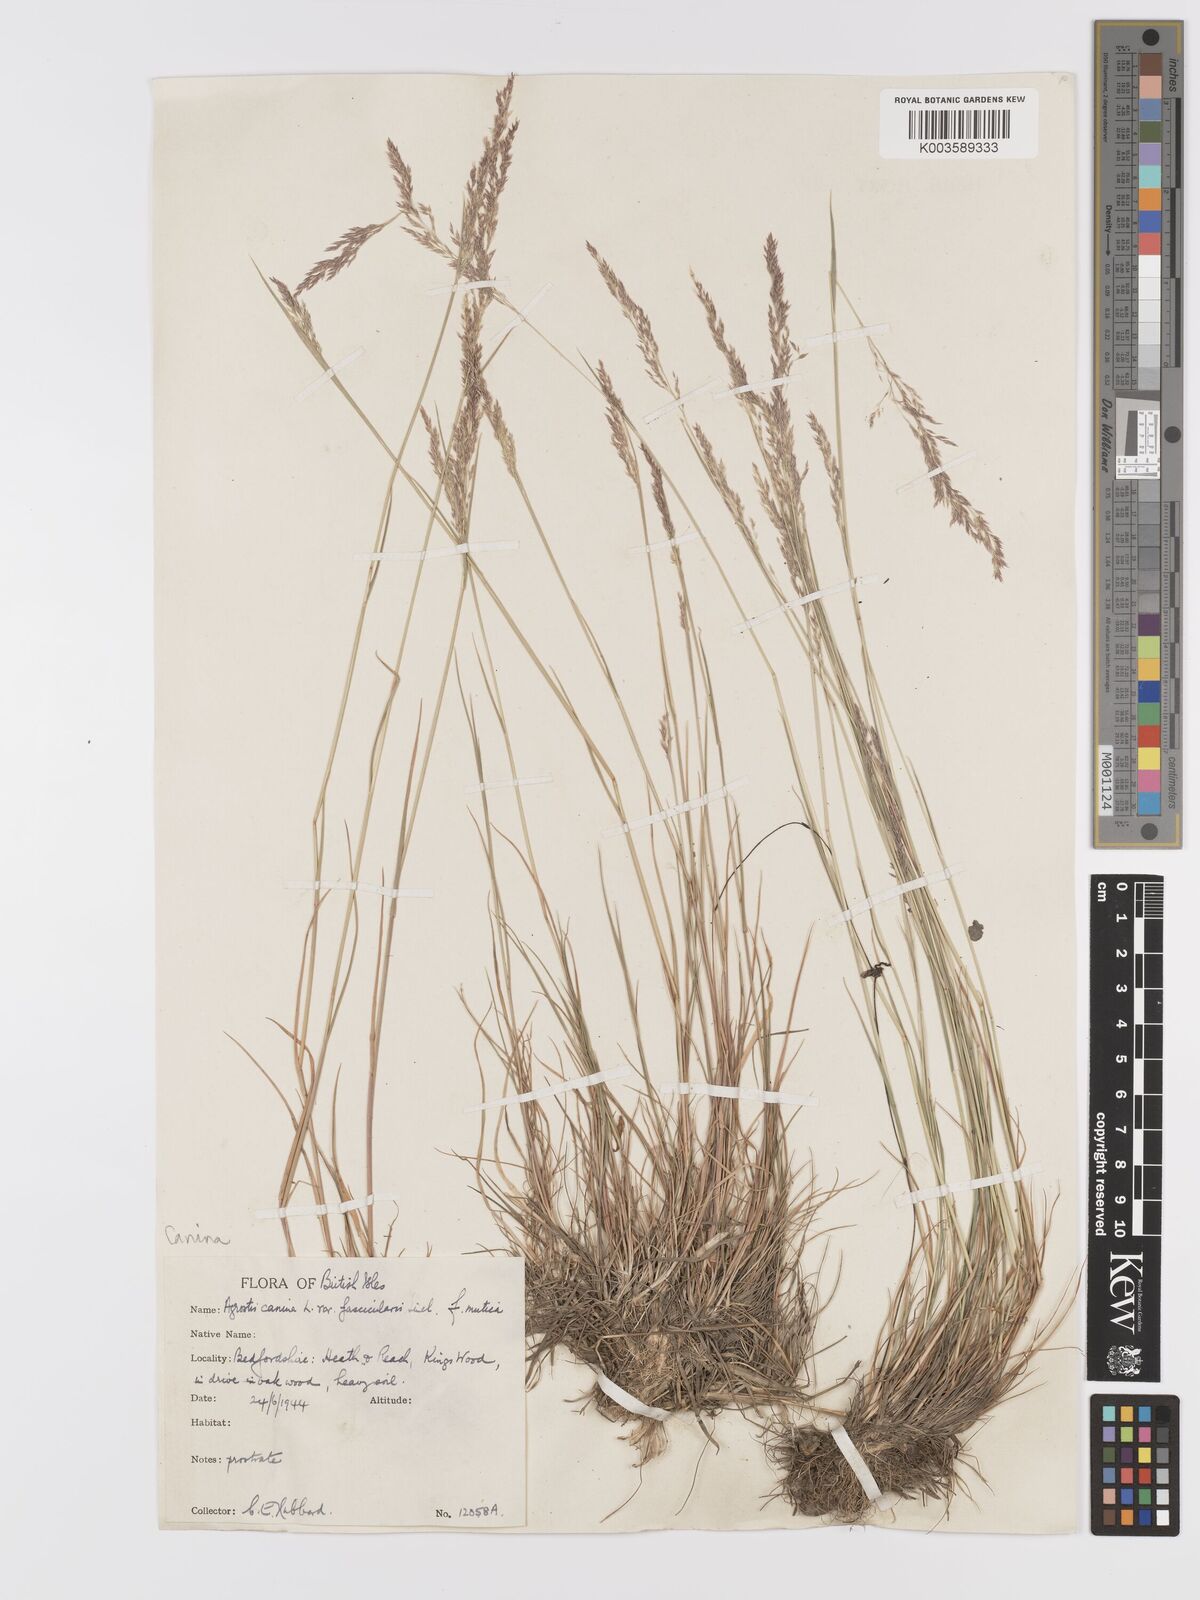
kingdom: Plantae
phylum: Tracheophyta
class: Liliopsida
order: Poales
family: Poaceae
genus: Agrostis
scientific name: Agrostis canina
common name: Velvet bent
